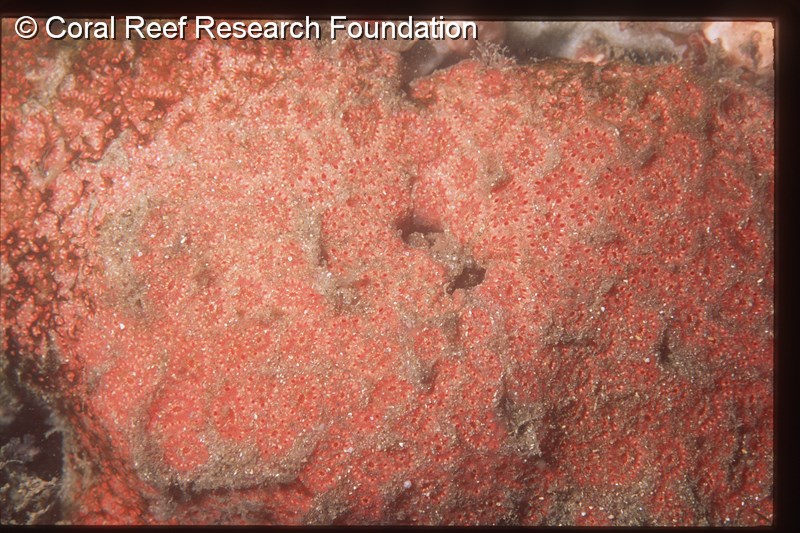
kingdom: Animalia
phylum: Chordata
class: Ascidiacea
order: Aplousobranchia
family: Polyclinidae
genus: Aplidium
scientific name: Aplidium
